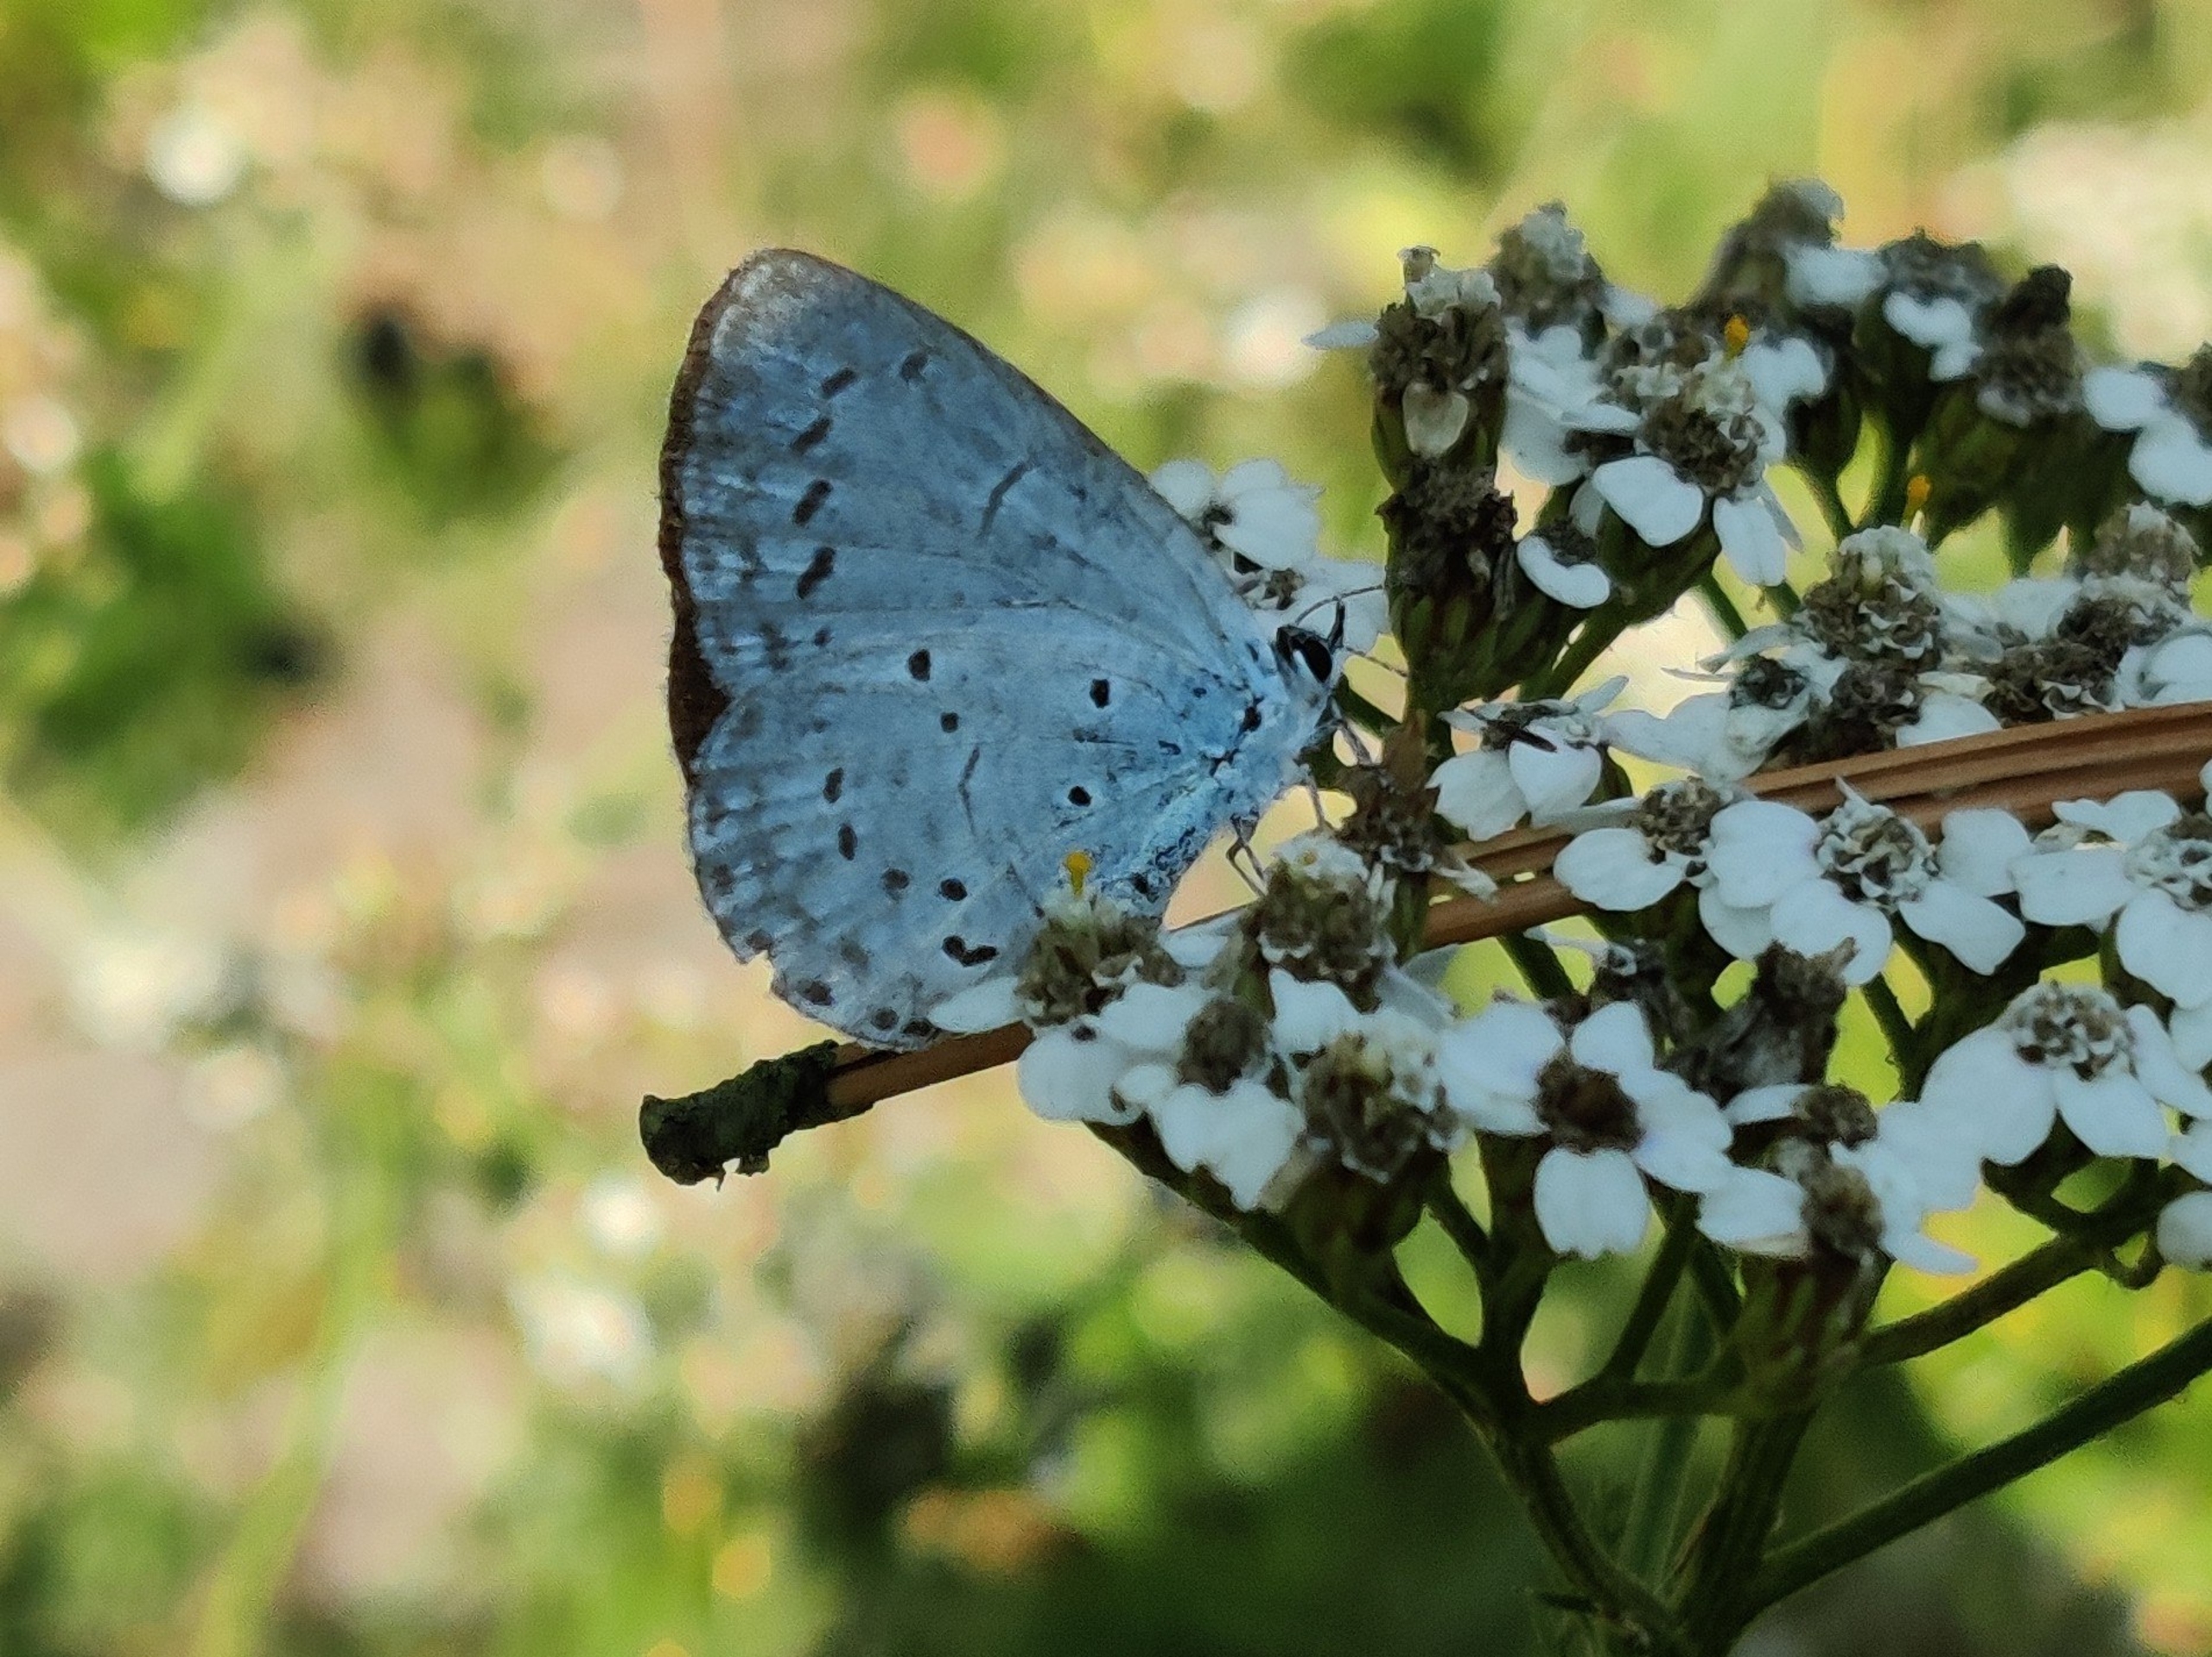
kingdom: Animalia
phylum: Arthropoda
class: Insecta
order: Lepidoptera
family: Lycaenidae
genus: Celastrina
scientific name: Celastrina argiolus
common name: Skovblåfugl
